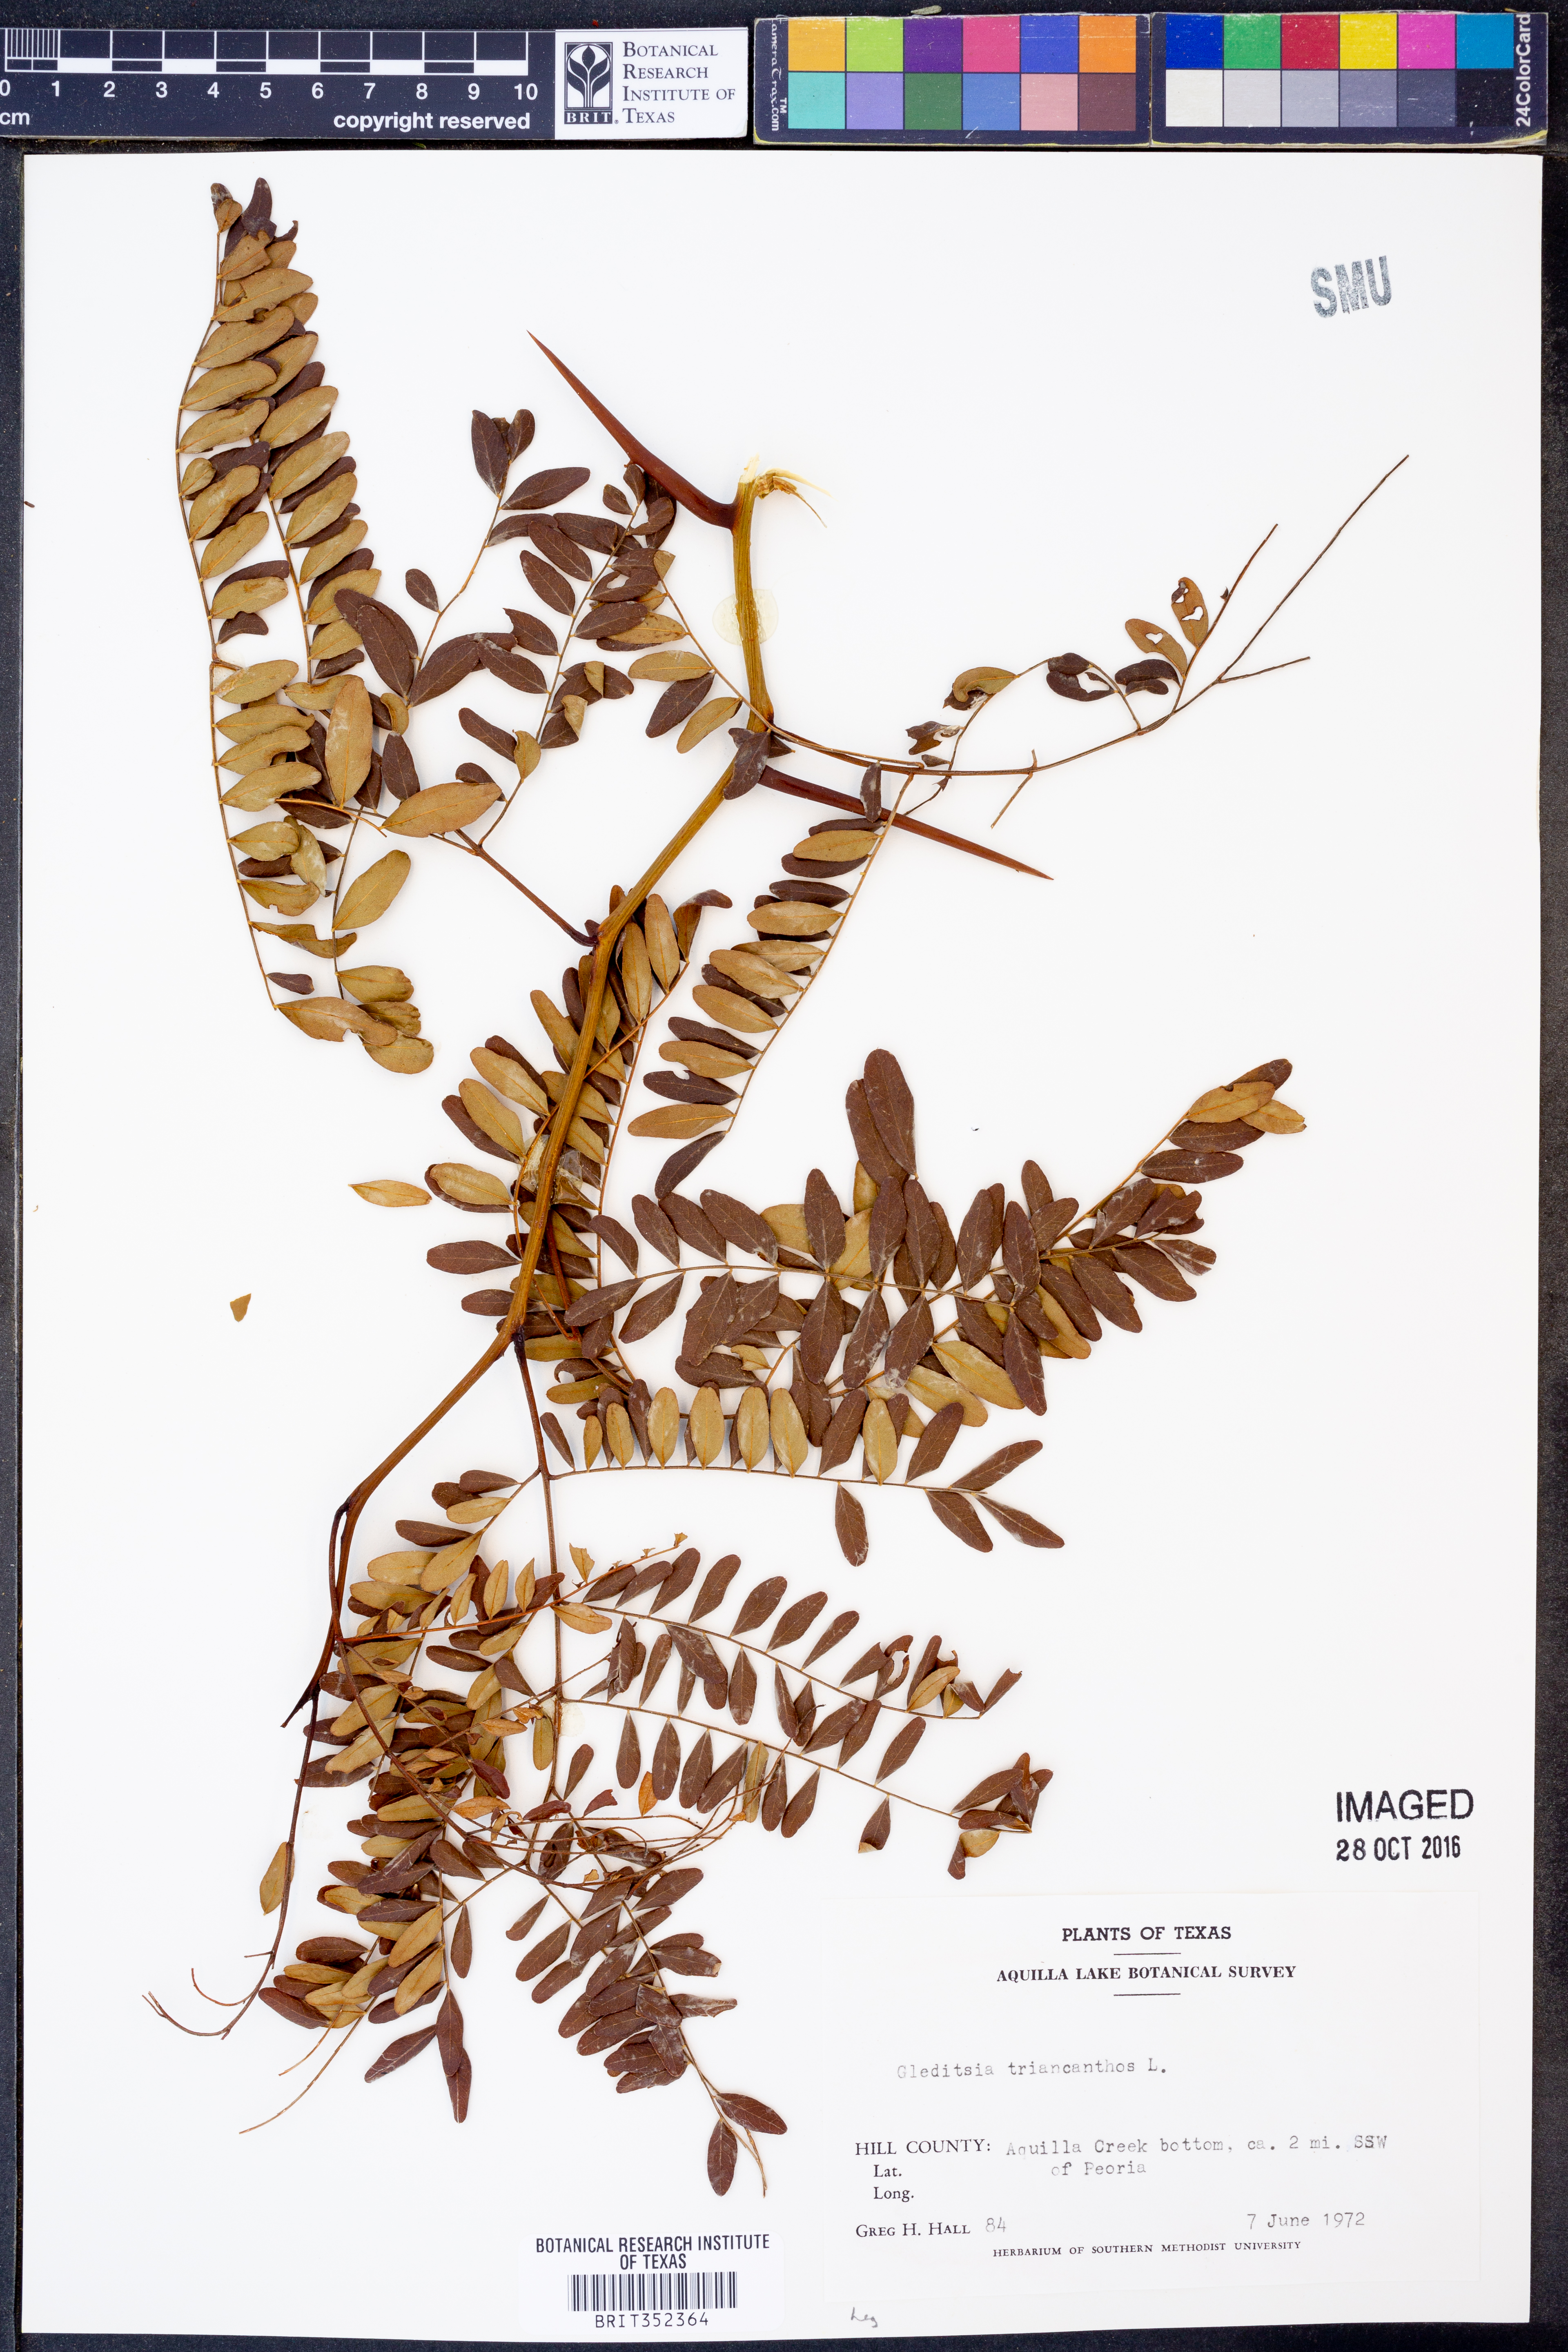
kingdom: Plantae
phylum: Tracheophyta
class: Magnoliopsida
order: Fabales
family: Fabaceae
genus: Gleditsia
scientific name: Gleditsia triacanthos
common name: Common honeylocust
